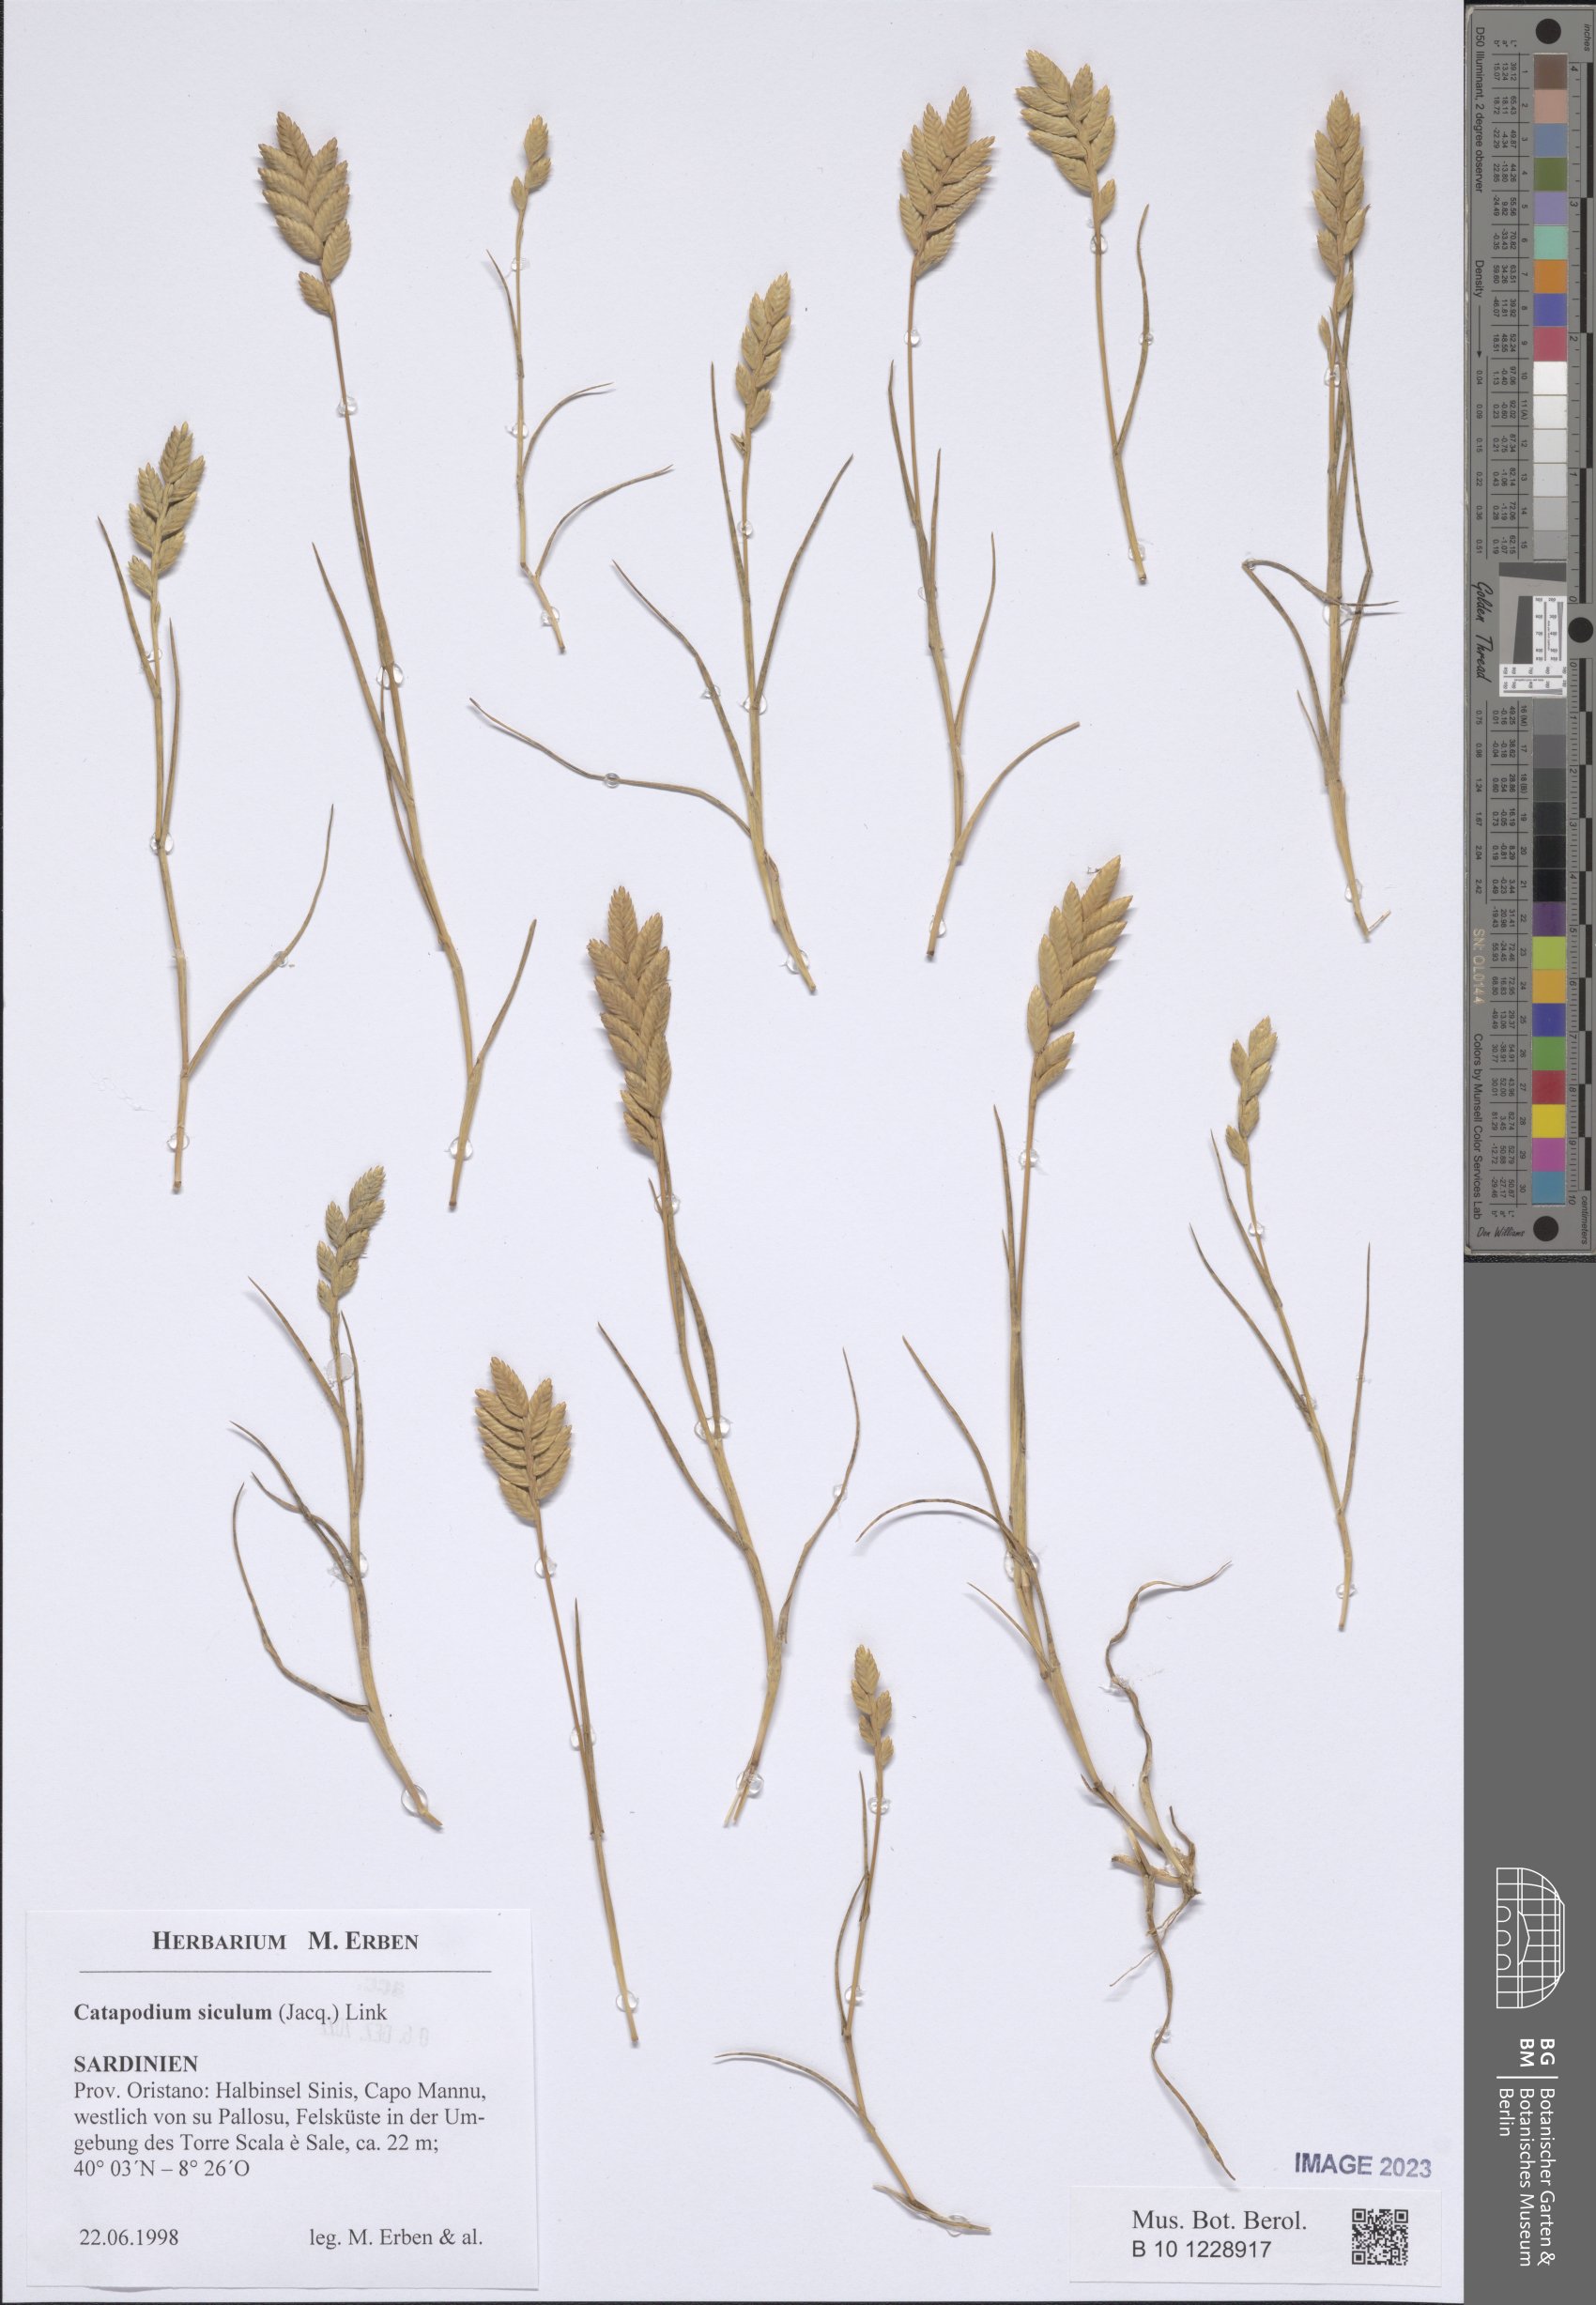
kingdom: Plantae
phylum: Tracheophyta
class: Liliopsida
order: Poales
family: Poaceae
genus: Desmazeria
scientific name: Desmazeria sicula
